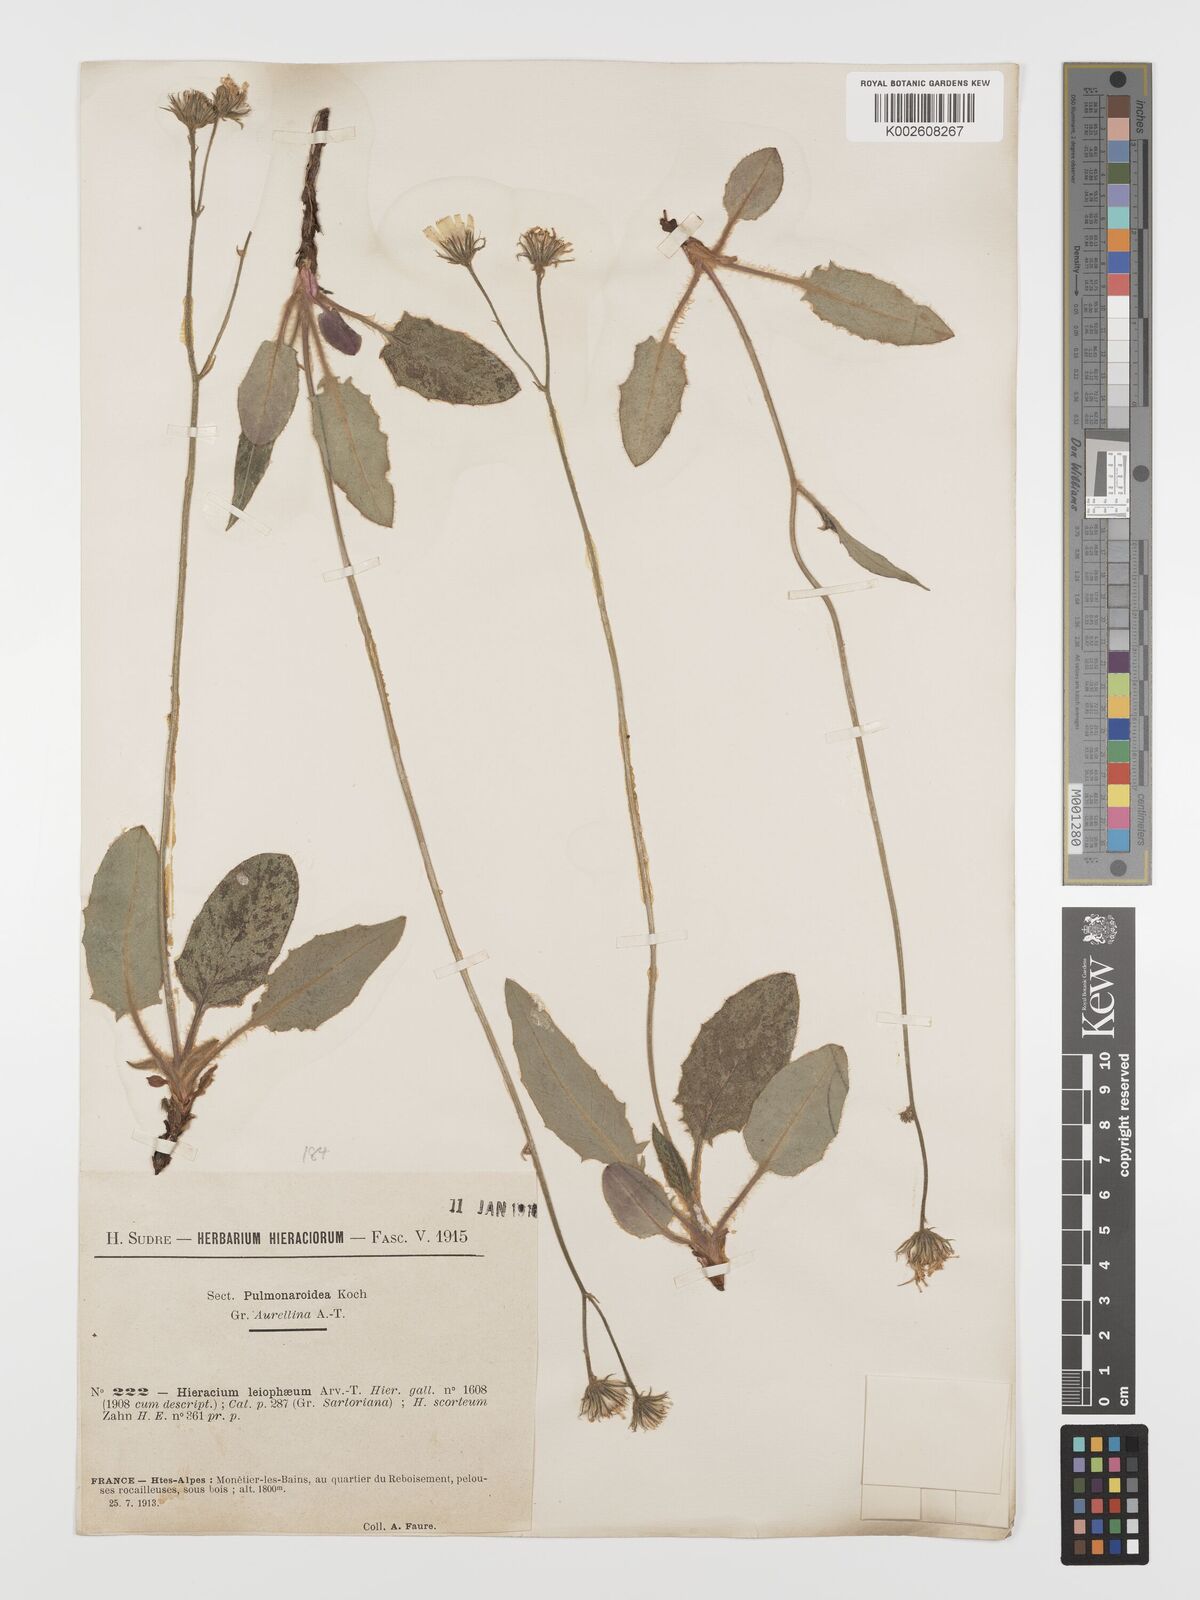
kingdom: Plantae
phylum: Tracheophyta
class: Magnoliopsida
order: Asterales
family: Asteraceae
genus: Hieracium
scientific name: Hieracium leiophaeum
